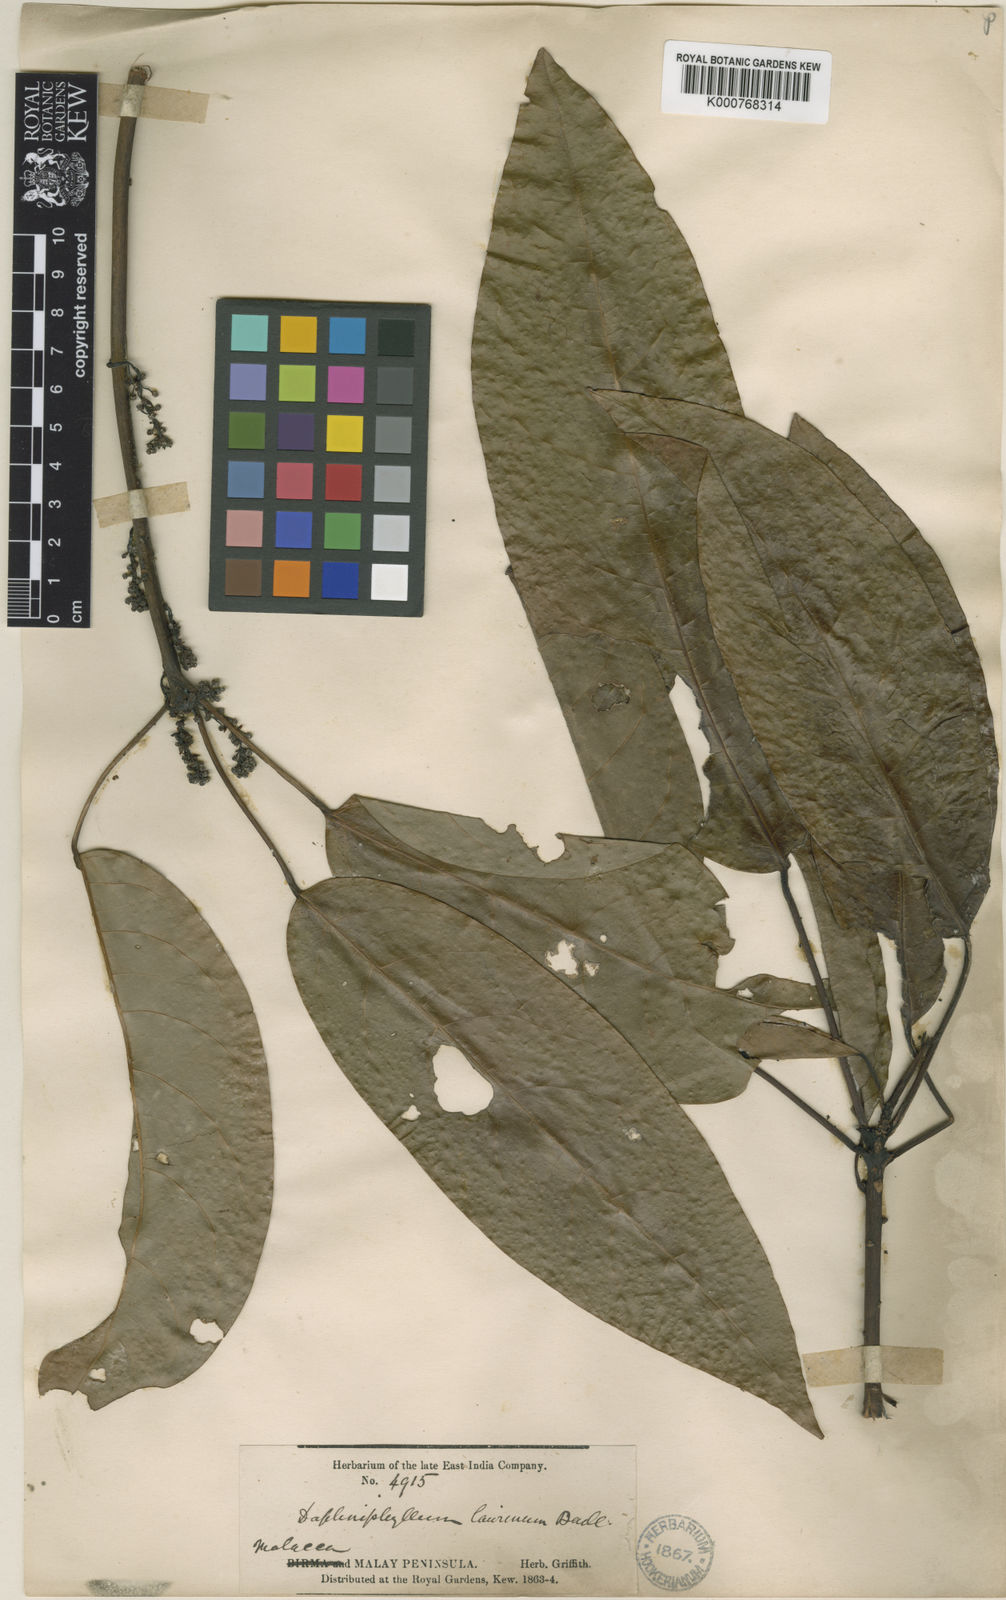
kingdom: Plantae
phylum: Tracheophyta
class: Magnoliopsida
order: Saxifragales
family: Daphniphyllaceae
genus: Daphniphyllum
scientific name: Daphniphyllum laurinum
